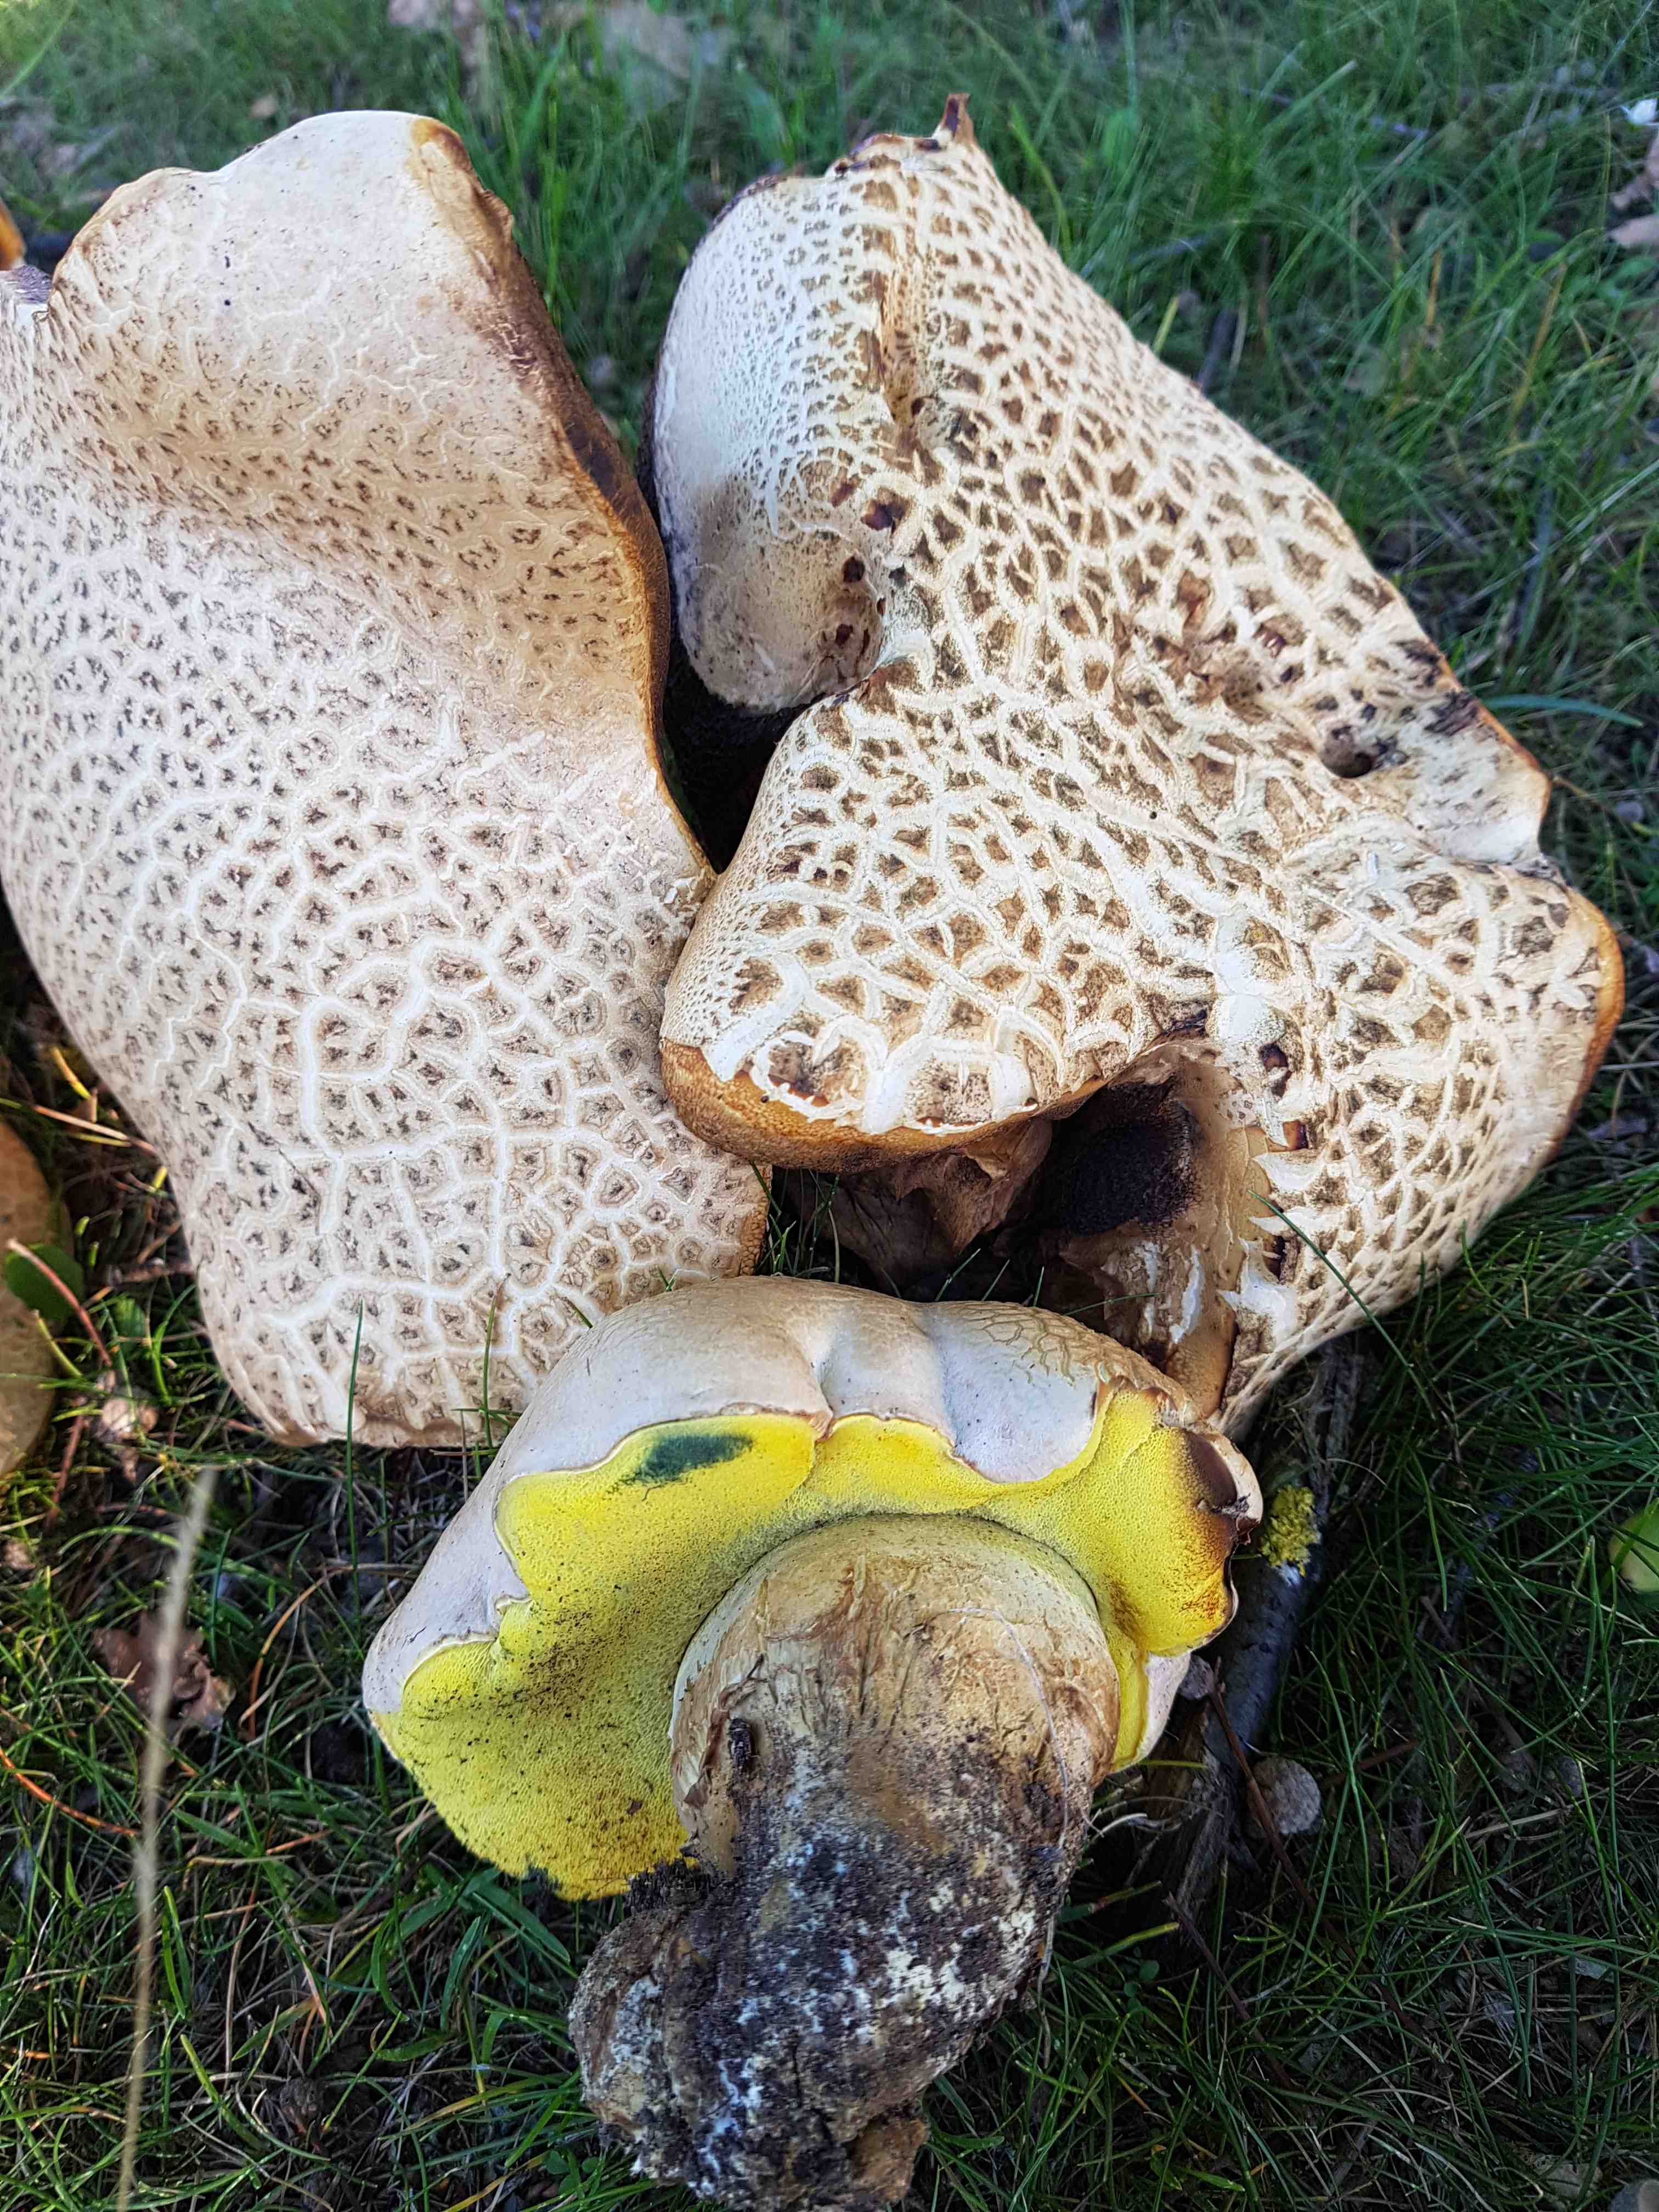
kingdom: Fungi
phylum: Basidiomycota
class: Agaricomycetes
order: Boletales
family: Boletaceae
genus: Caloboletus
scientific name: Caloboletus radicans
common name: rod-rørhat
